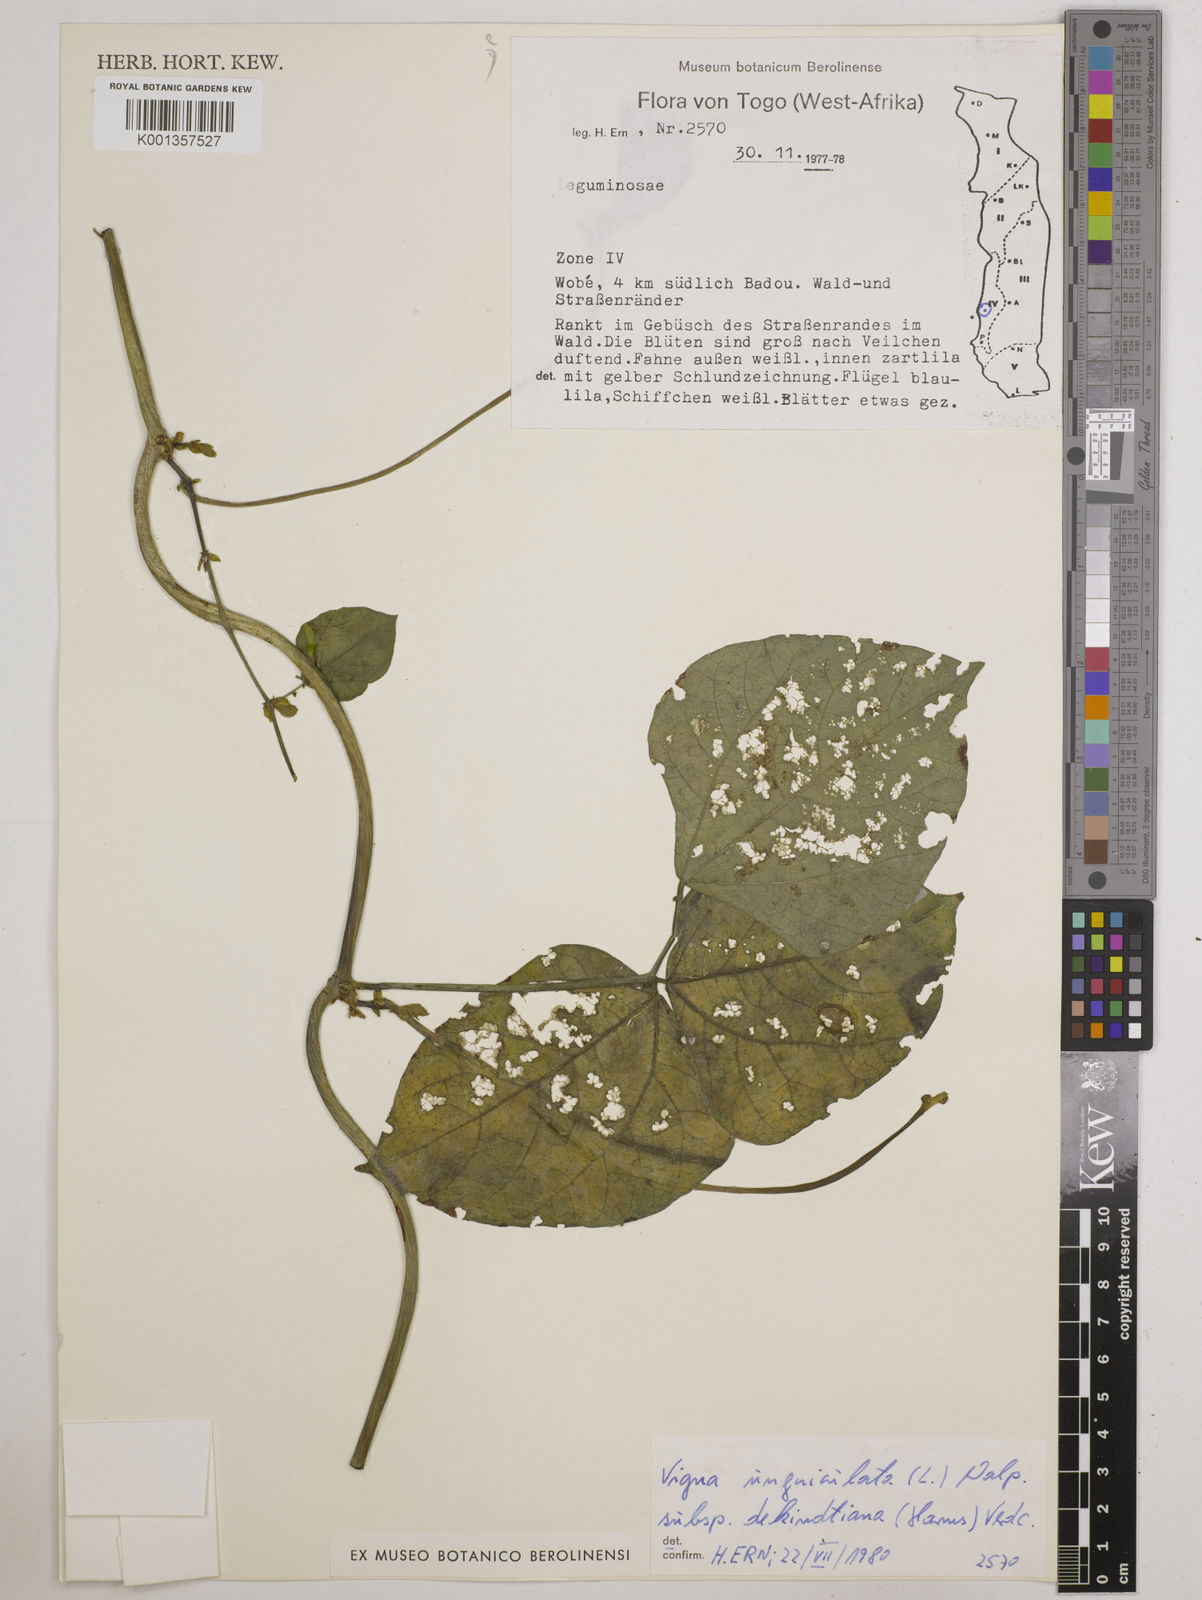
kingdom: Plantae
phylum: Tracheophyta
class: Magnoliopsida
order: Fabales
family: Fabaceae
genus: Vigna
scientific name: Vigna
